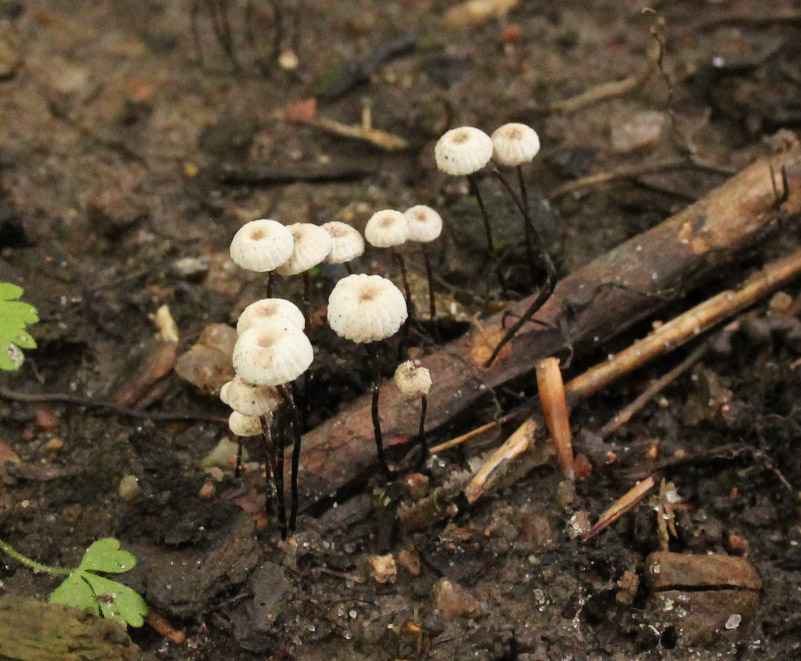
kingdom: Fungi
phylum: Basidiomycota
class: Agaricomycetes
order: Agaricales
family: Marasmiaceae
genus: Marasmius
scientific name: Marasmius rotula
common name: hjul-bruskhat
